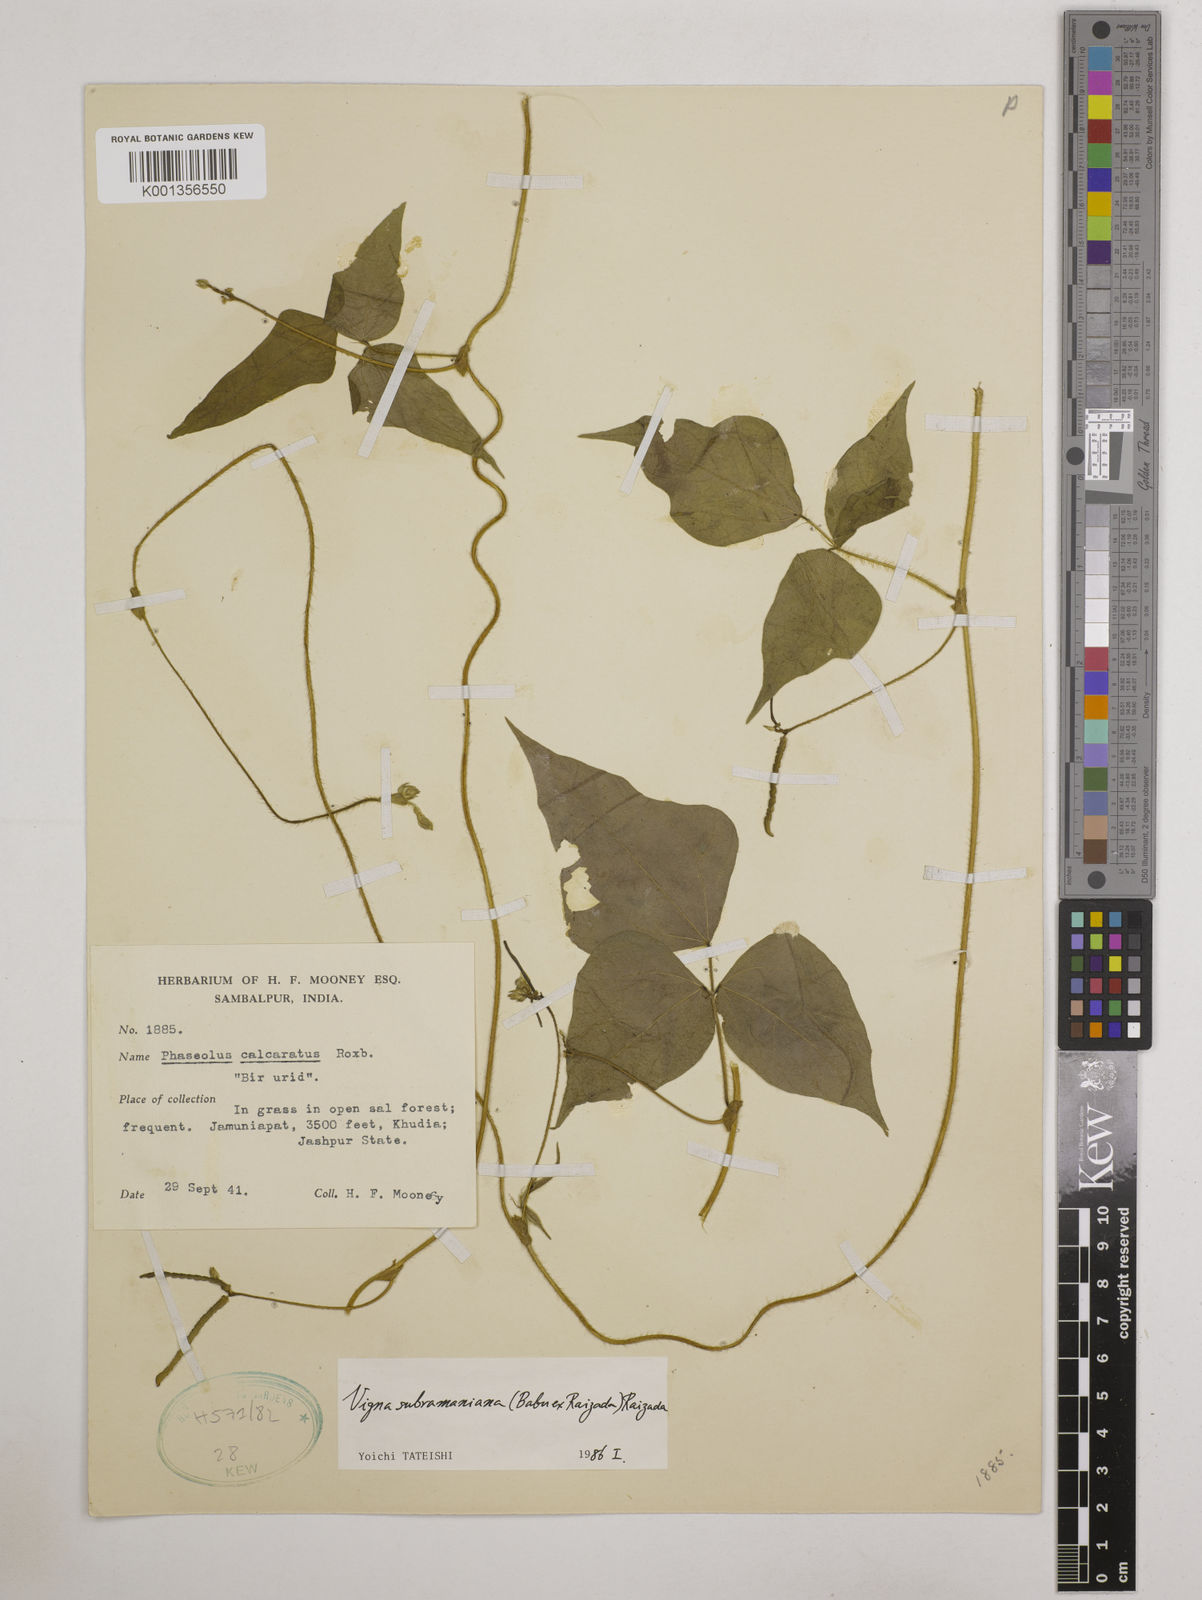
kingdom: Plantae
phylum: Tracheophyta
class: Magnoliopsida
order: Fabales
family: Fabaceae
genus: Vigna
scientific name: Vigna subramaniana
